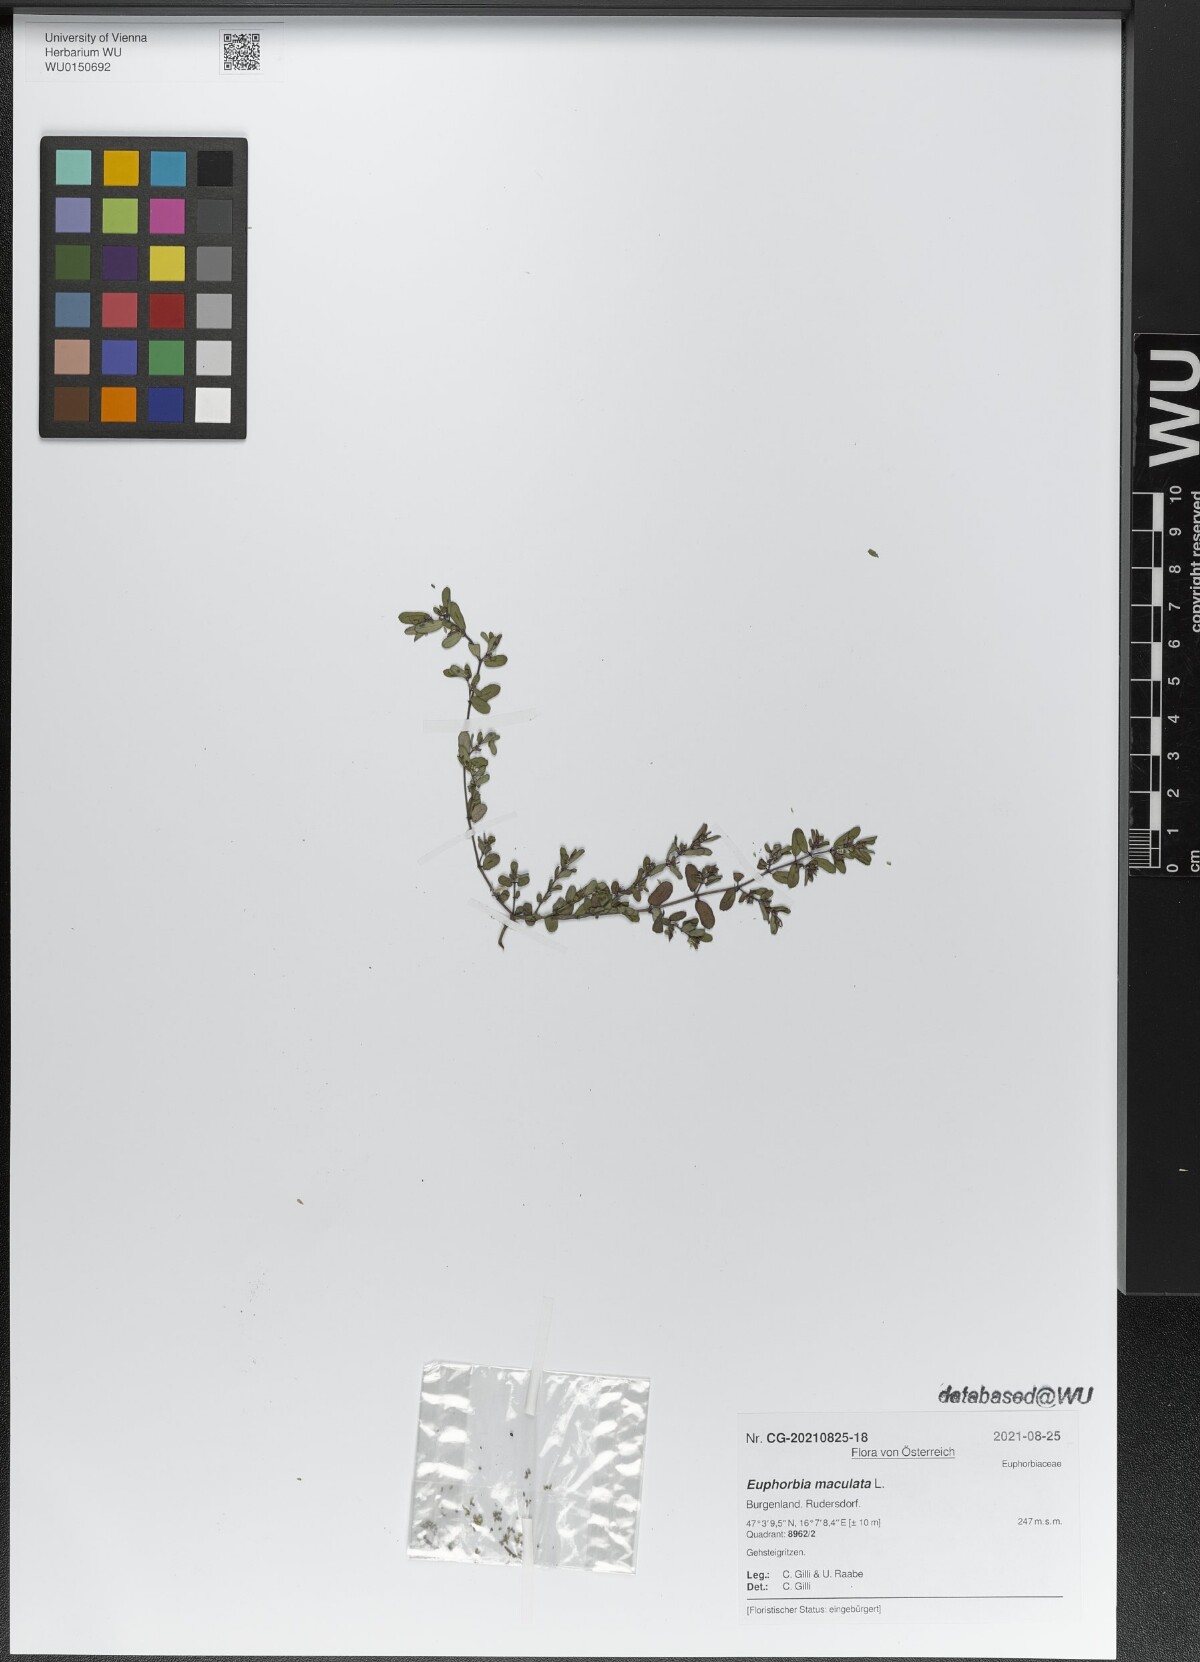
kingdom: Plantae
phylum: Tracheophyta
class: Magnoliopsida
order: Malpighiales
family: Euphorbiaceae
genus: Euphorbia
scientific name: Euphorbia maculata
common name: Spotted spurge
